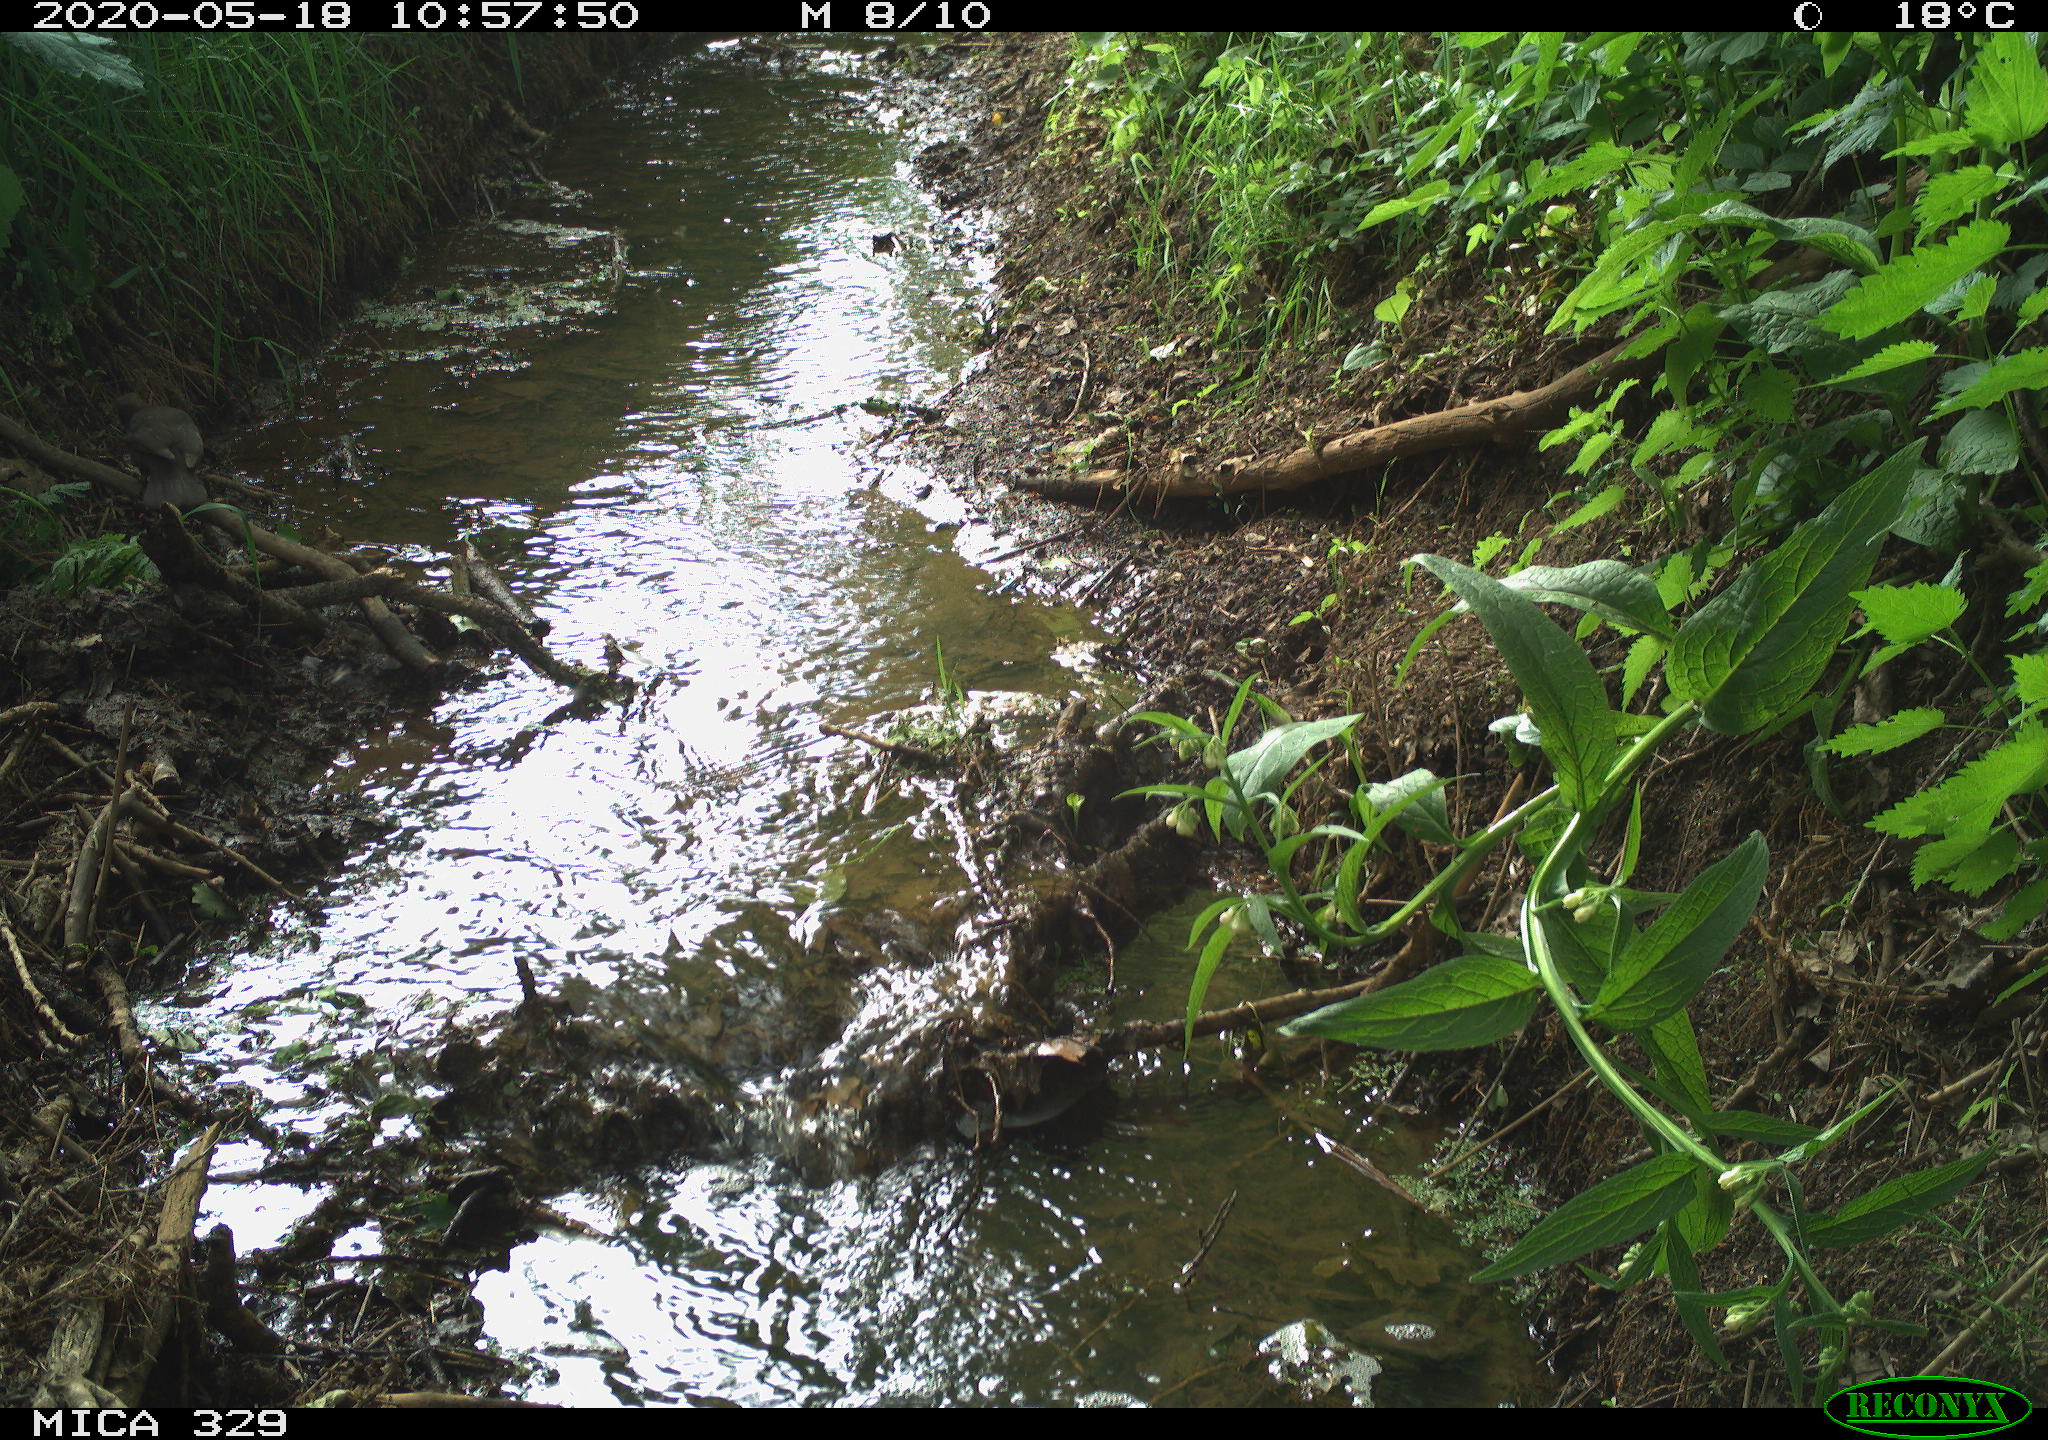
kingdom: Animalia
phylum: Chordata
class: Aves
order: Passeriformes
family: Turdidae
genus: Turdus
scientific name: Turdus merula
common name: Common blackbird
